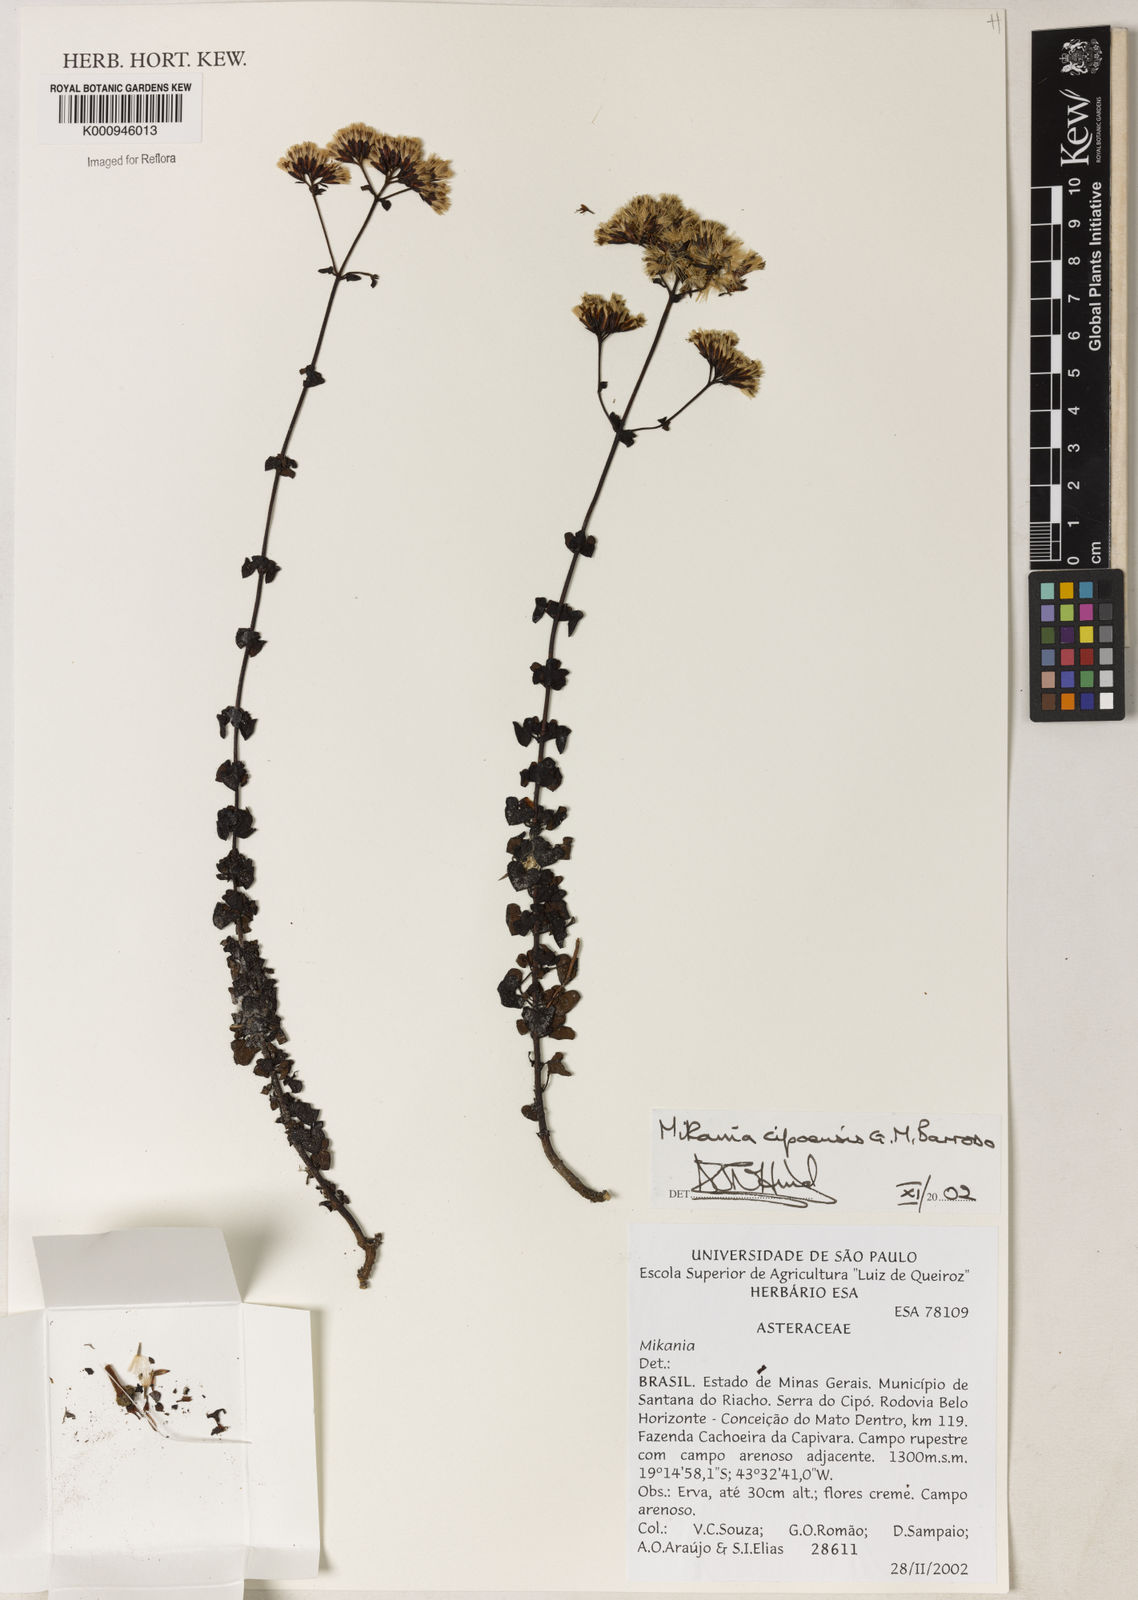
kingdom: Plantae
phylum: Tracheophyta
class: Magnoliopsida
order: Asterales
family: Asteraceae
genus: Mikania
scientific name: Mikania cipoensis
